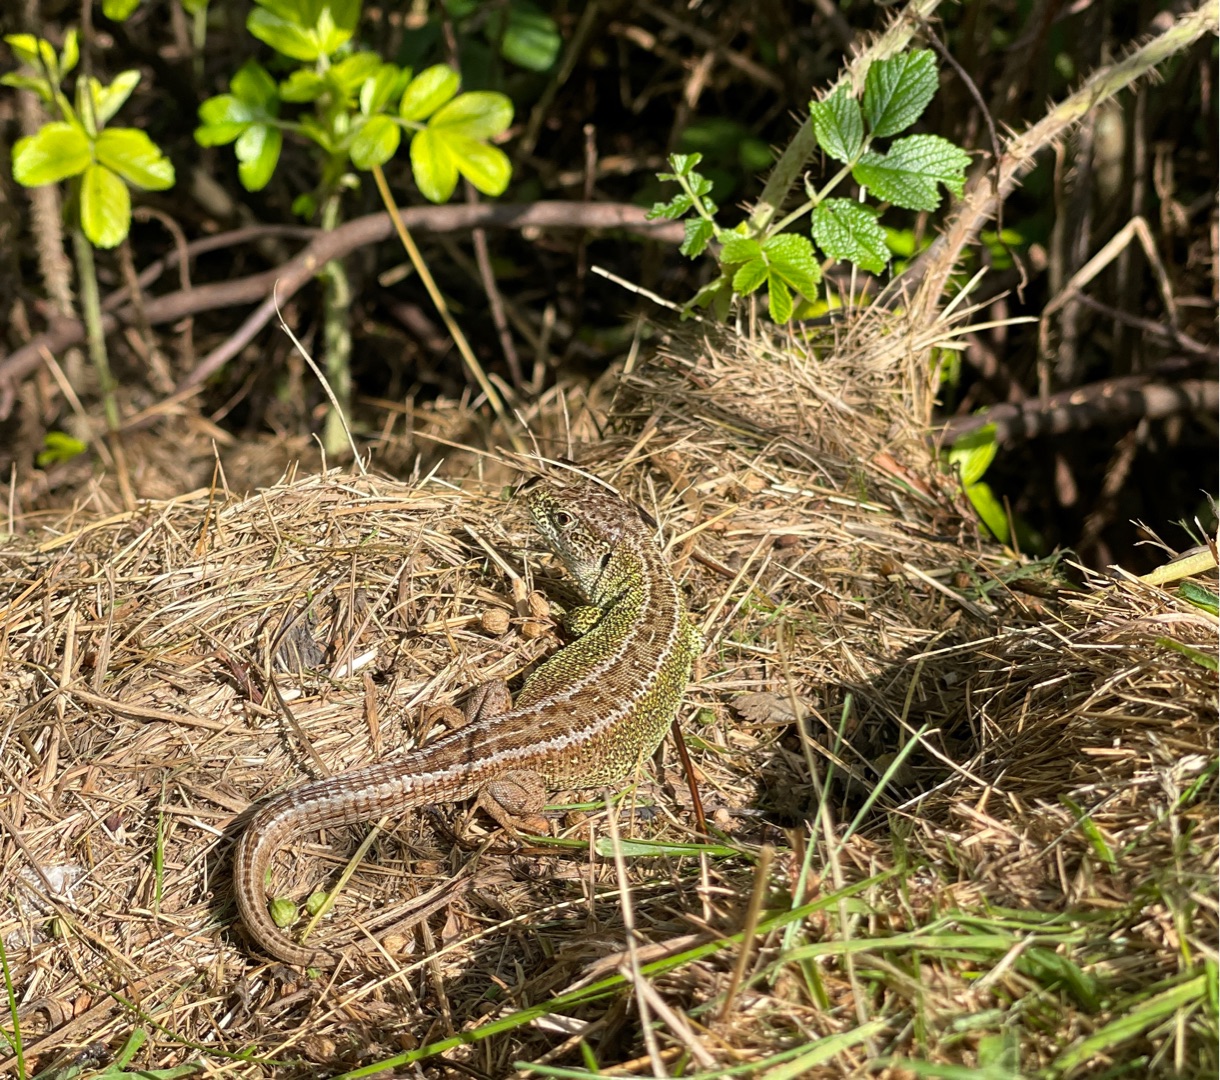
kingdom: Animalia
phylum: Chordata
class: Squamata
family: Lacertidae
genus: Lacerta
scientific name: Lacerta agilis
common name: Markfirben
